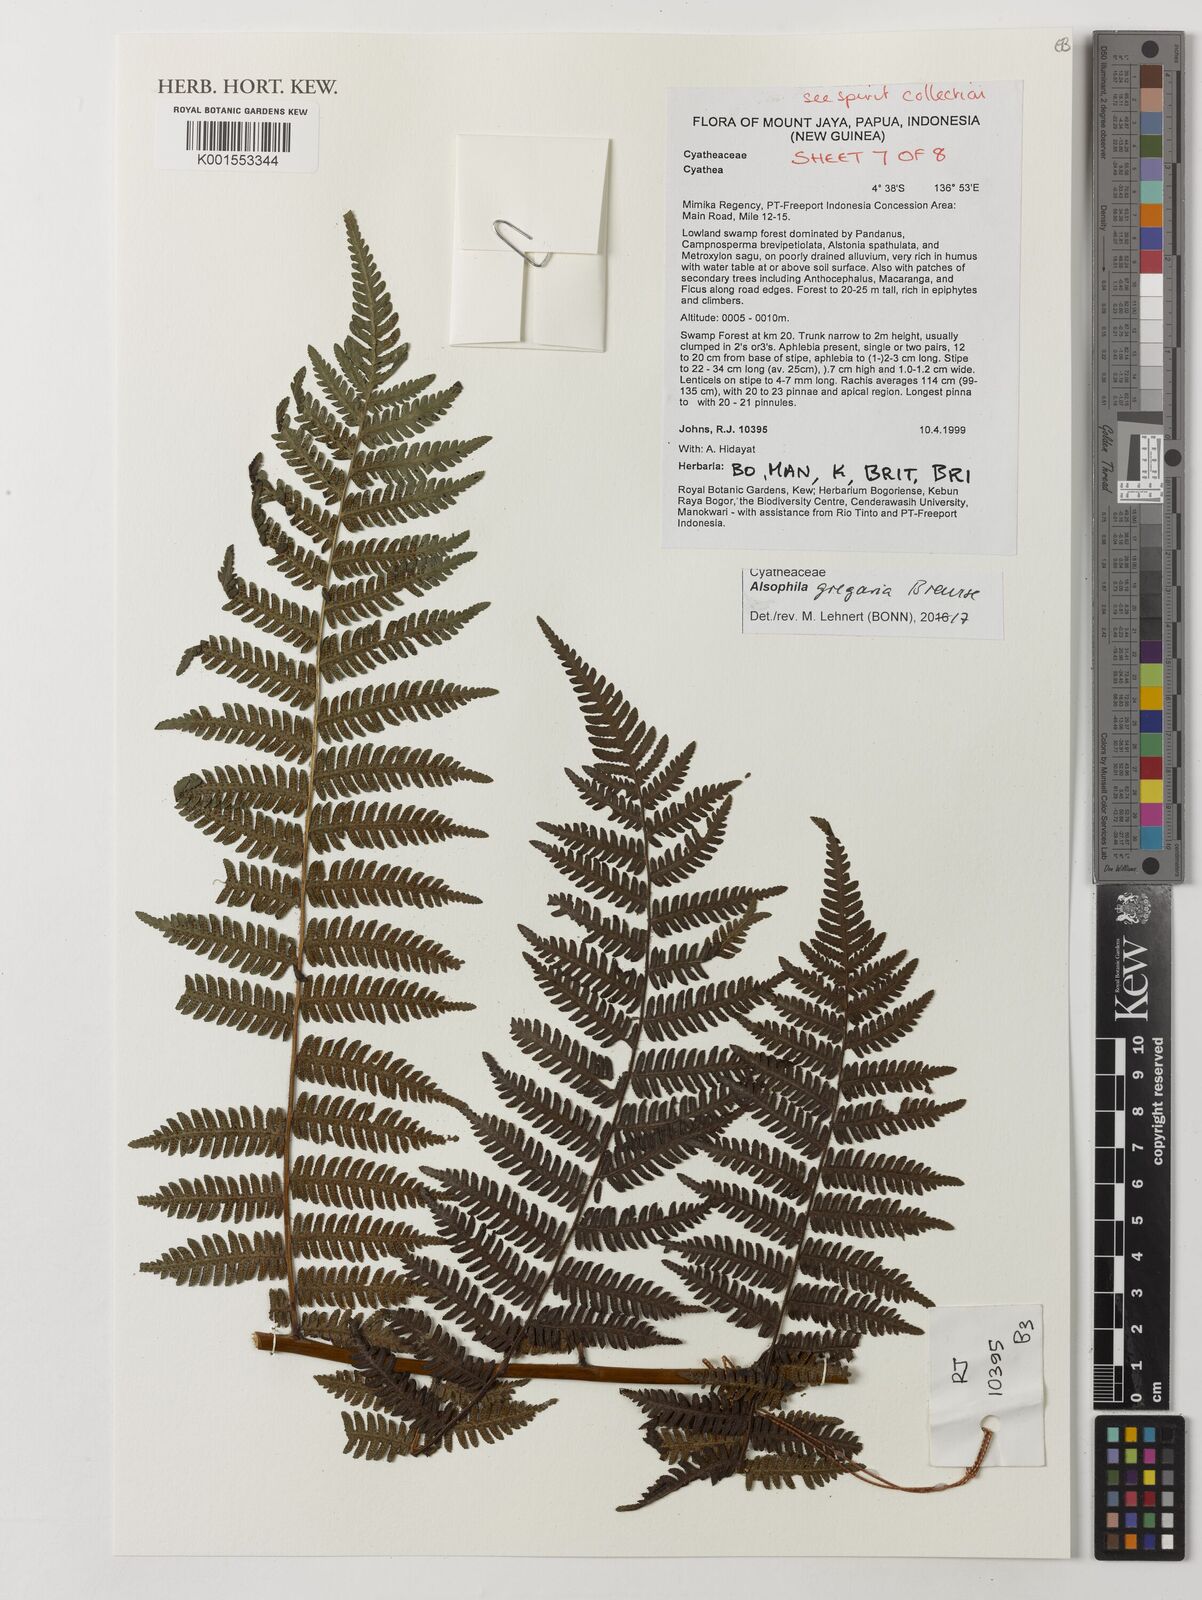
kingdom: Plantae
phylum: Tracheophyta
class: Polypodiopsida
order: Cyatheales
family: Cyatheaceae
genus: Alsophila
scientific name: Alsophila gregaria
